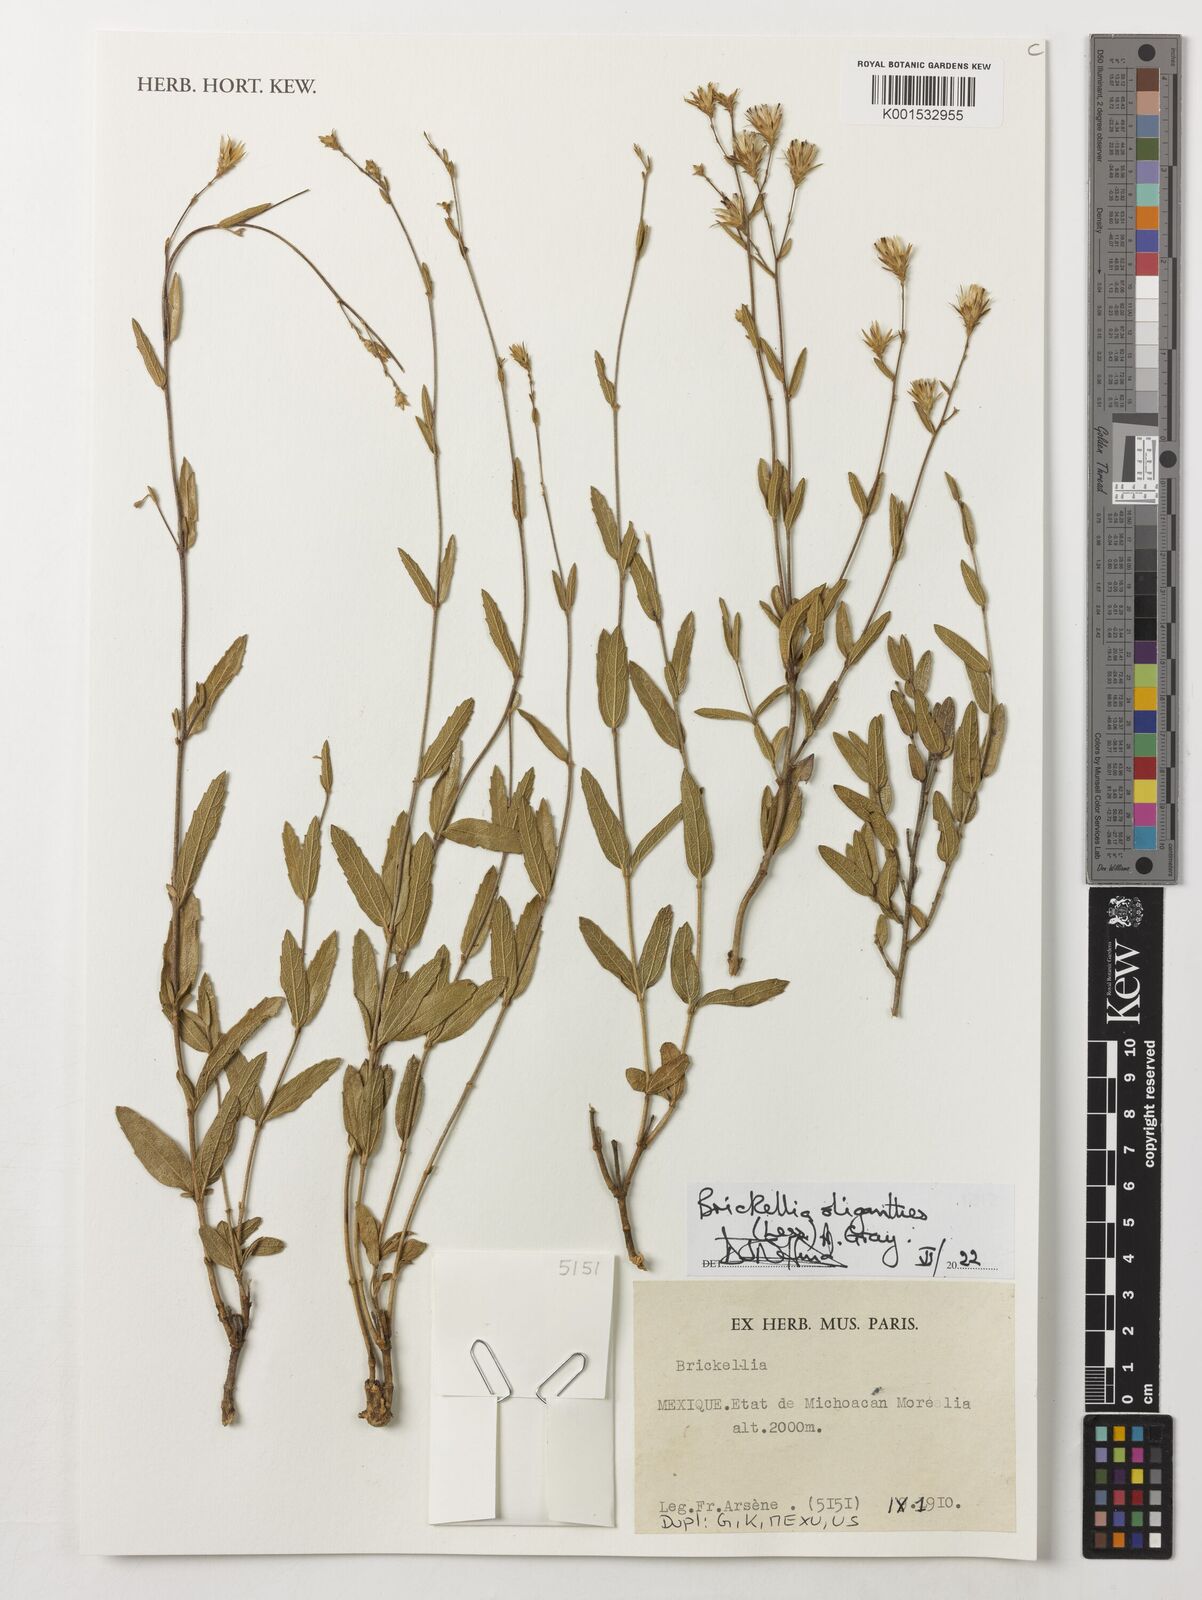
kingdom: Plantae
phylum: Tracheophyta
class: Magnoliopsida
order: Asterales
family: Asteraceae
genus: Brickellia
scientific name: Brickellia oliganthes
